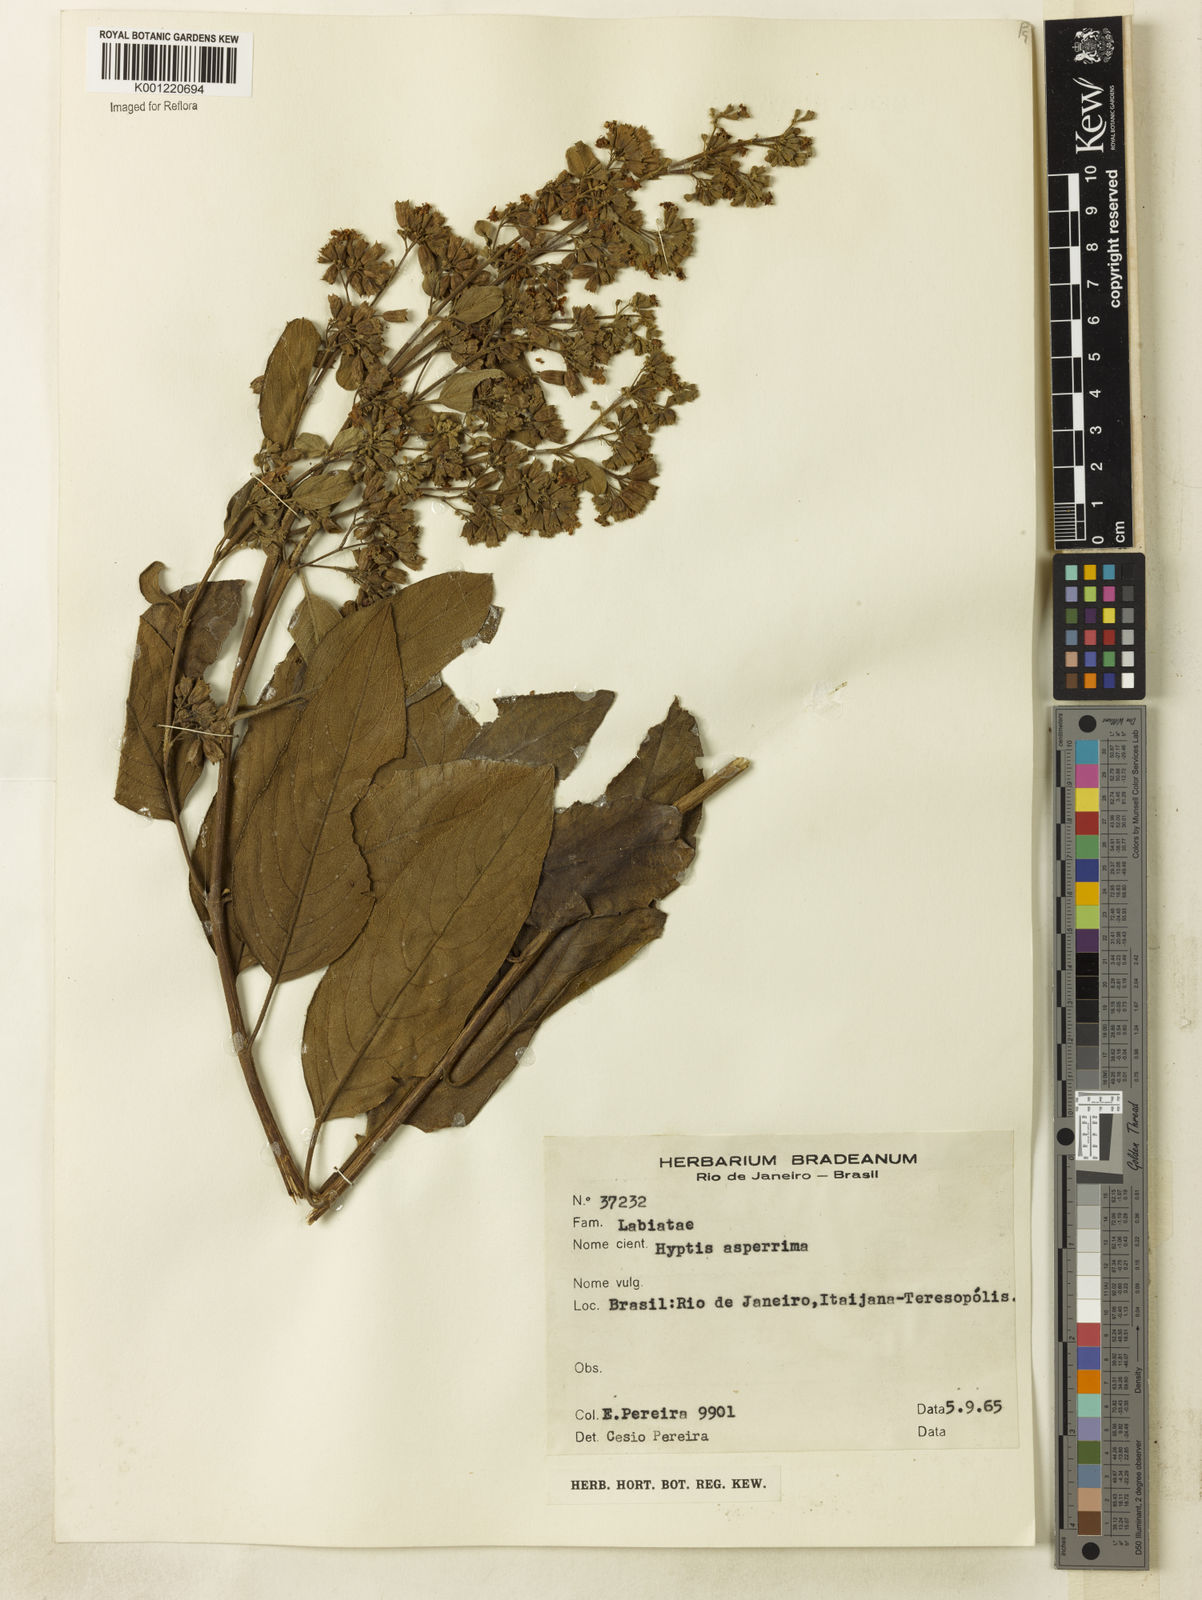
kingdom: Plantae
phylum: Tracheophyta
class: Magnoliopsida
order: Lamiales
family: Lamiaceae
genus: Hyptidendron
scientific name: Hyptidendron asperrimum
